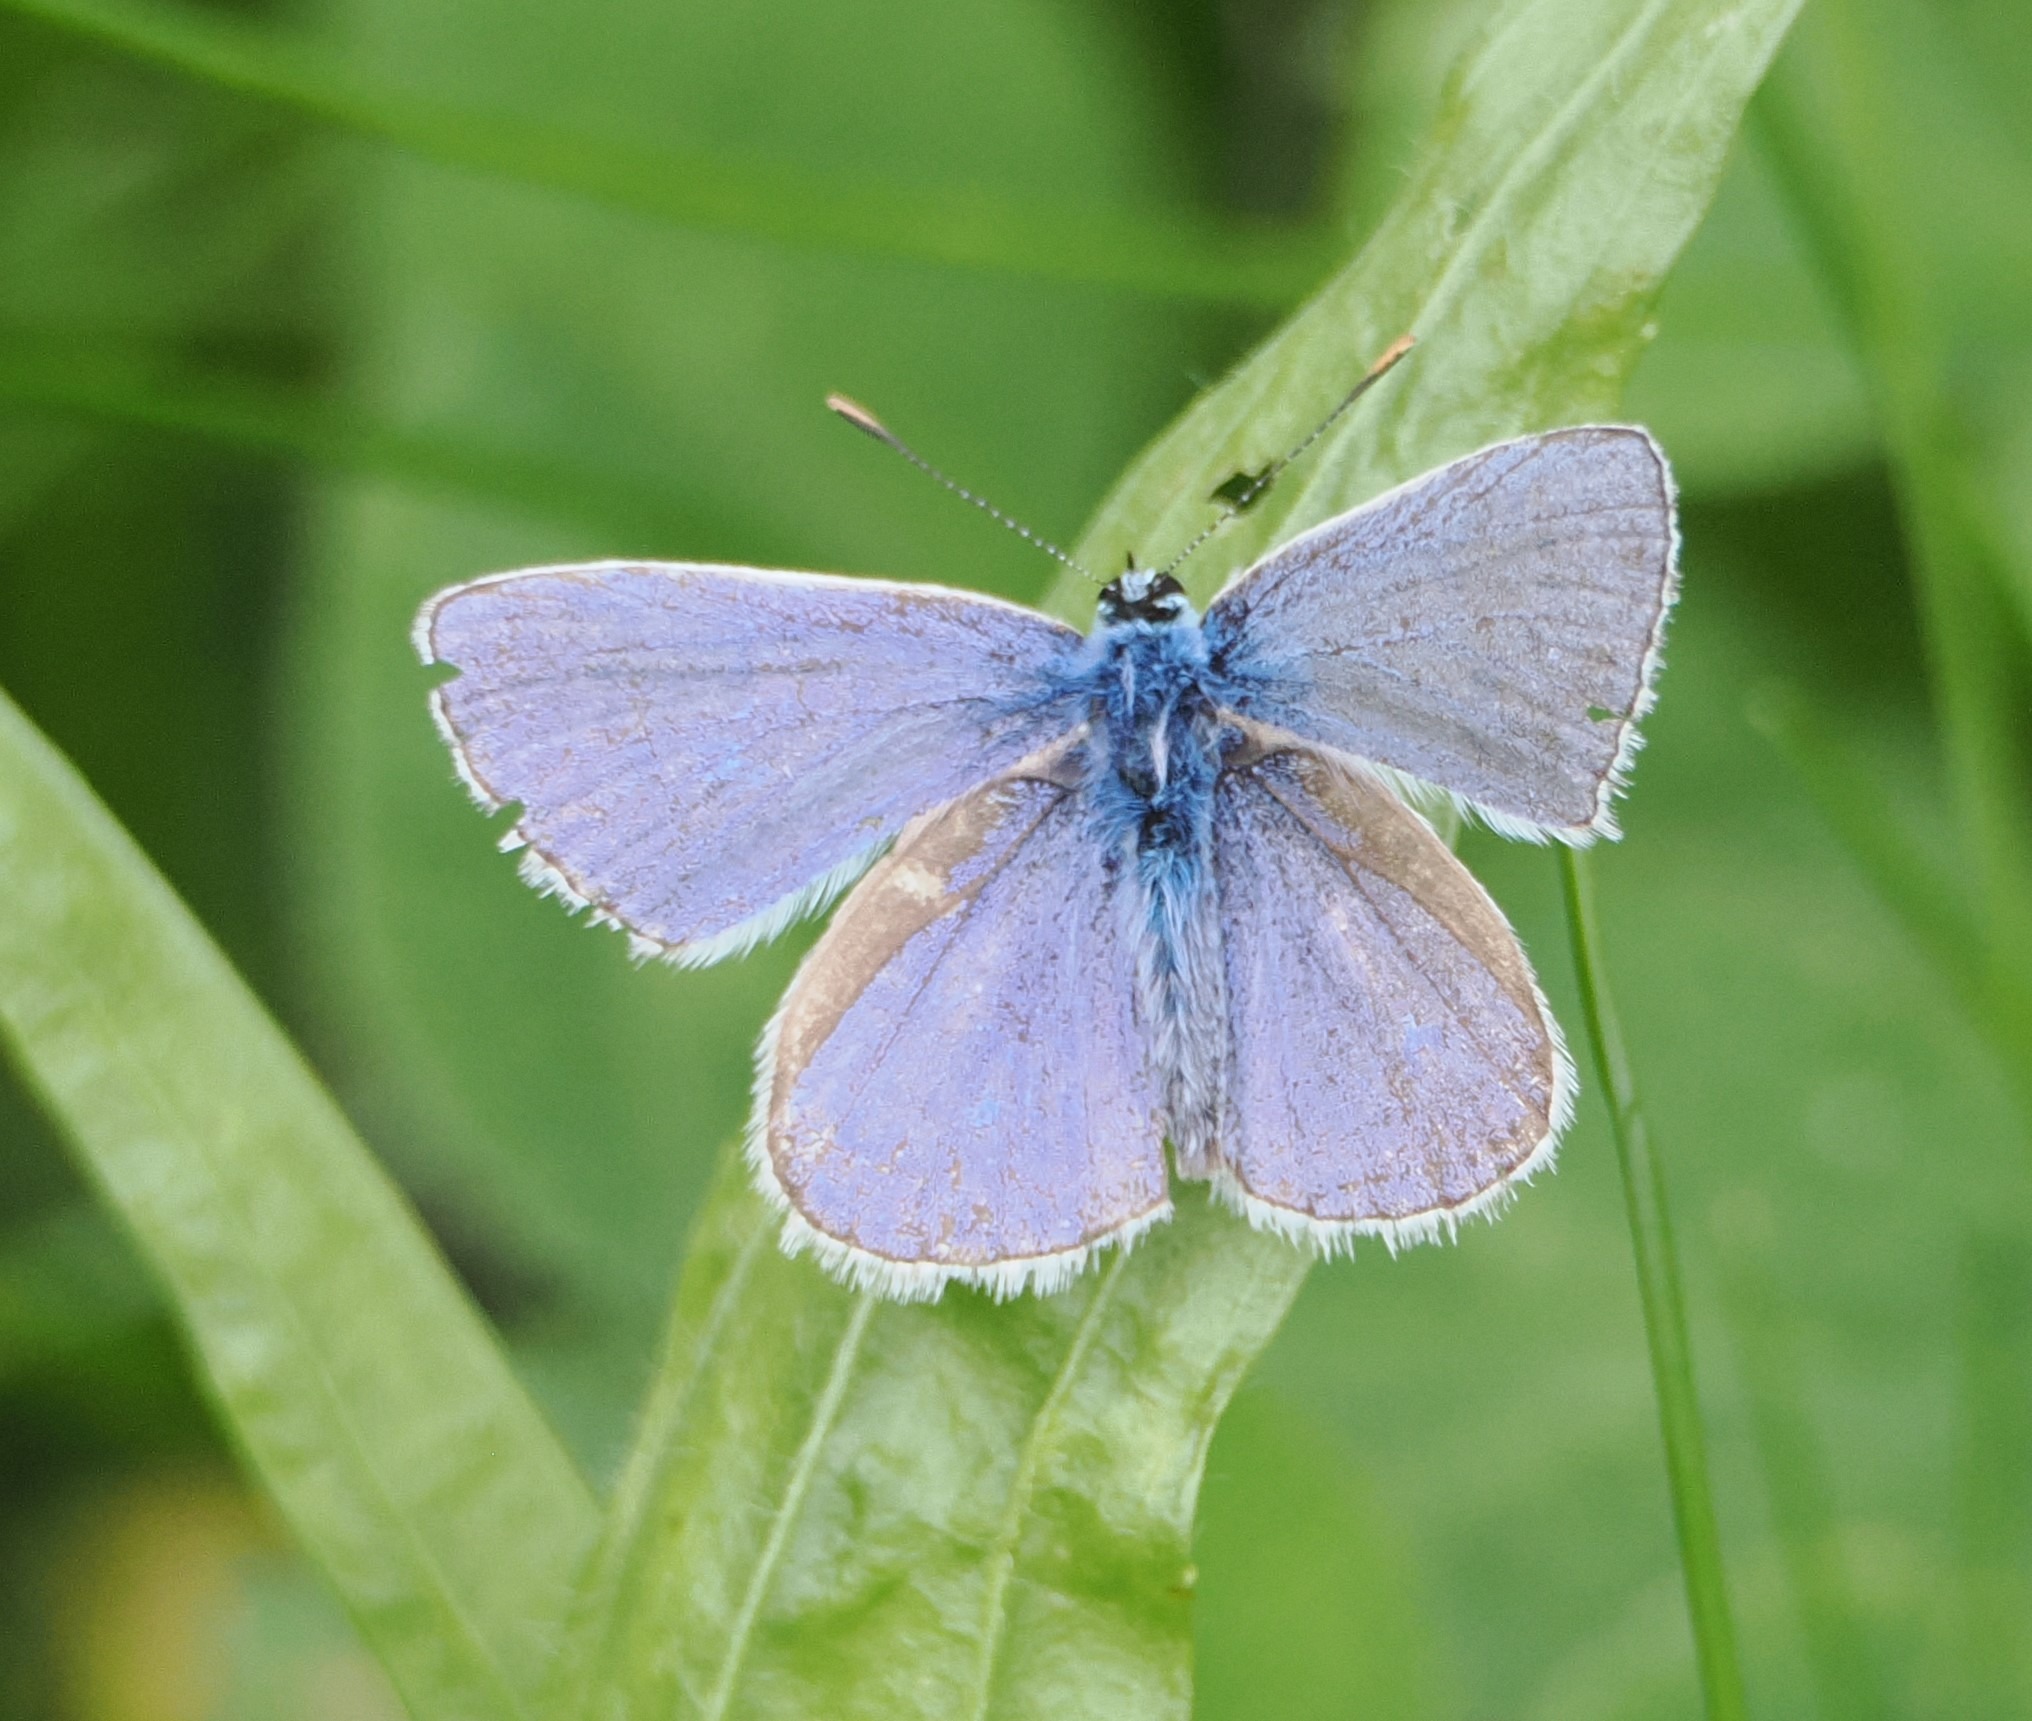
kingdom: Animalia
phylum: Arthropoda
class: Insecta
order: Lepidoptera
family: Lycaenidae
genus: Polyommatus
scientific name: Polyommatus icarus
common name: Almindelig blåfugl
